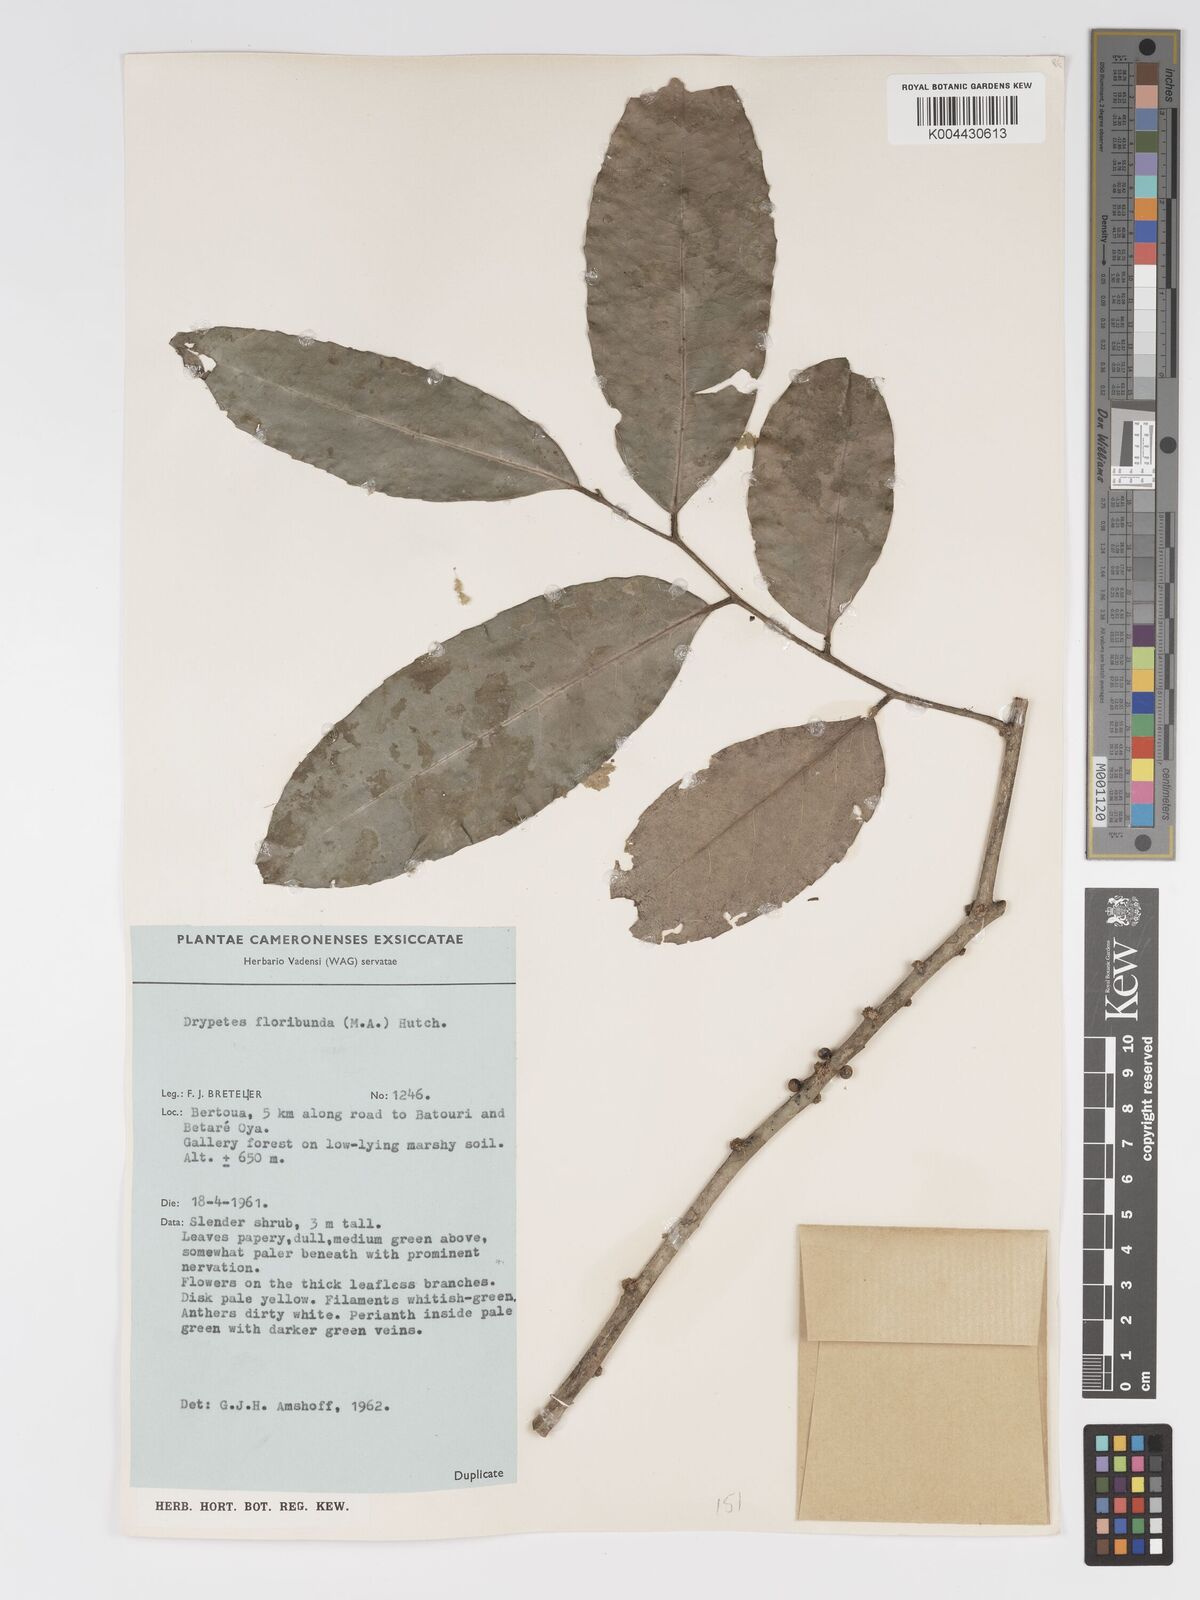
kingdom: Plantae
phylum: Tracheophyta
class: Magnoliopsida
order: Malpighiales
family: Putranjivaceae
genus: Drypetes
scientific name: Drypetes floribunda
